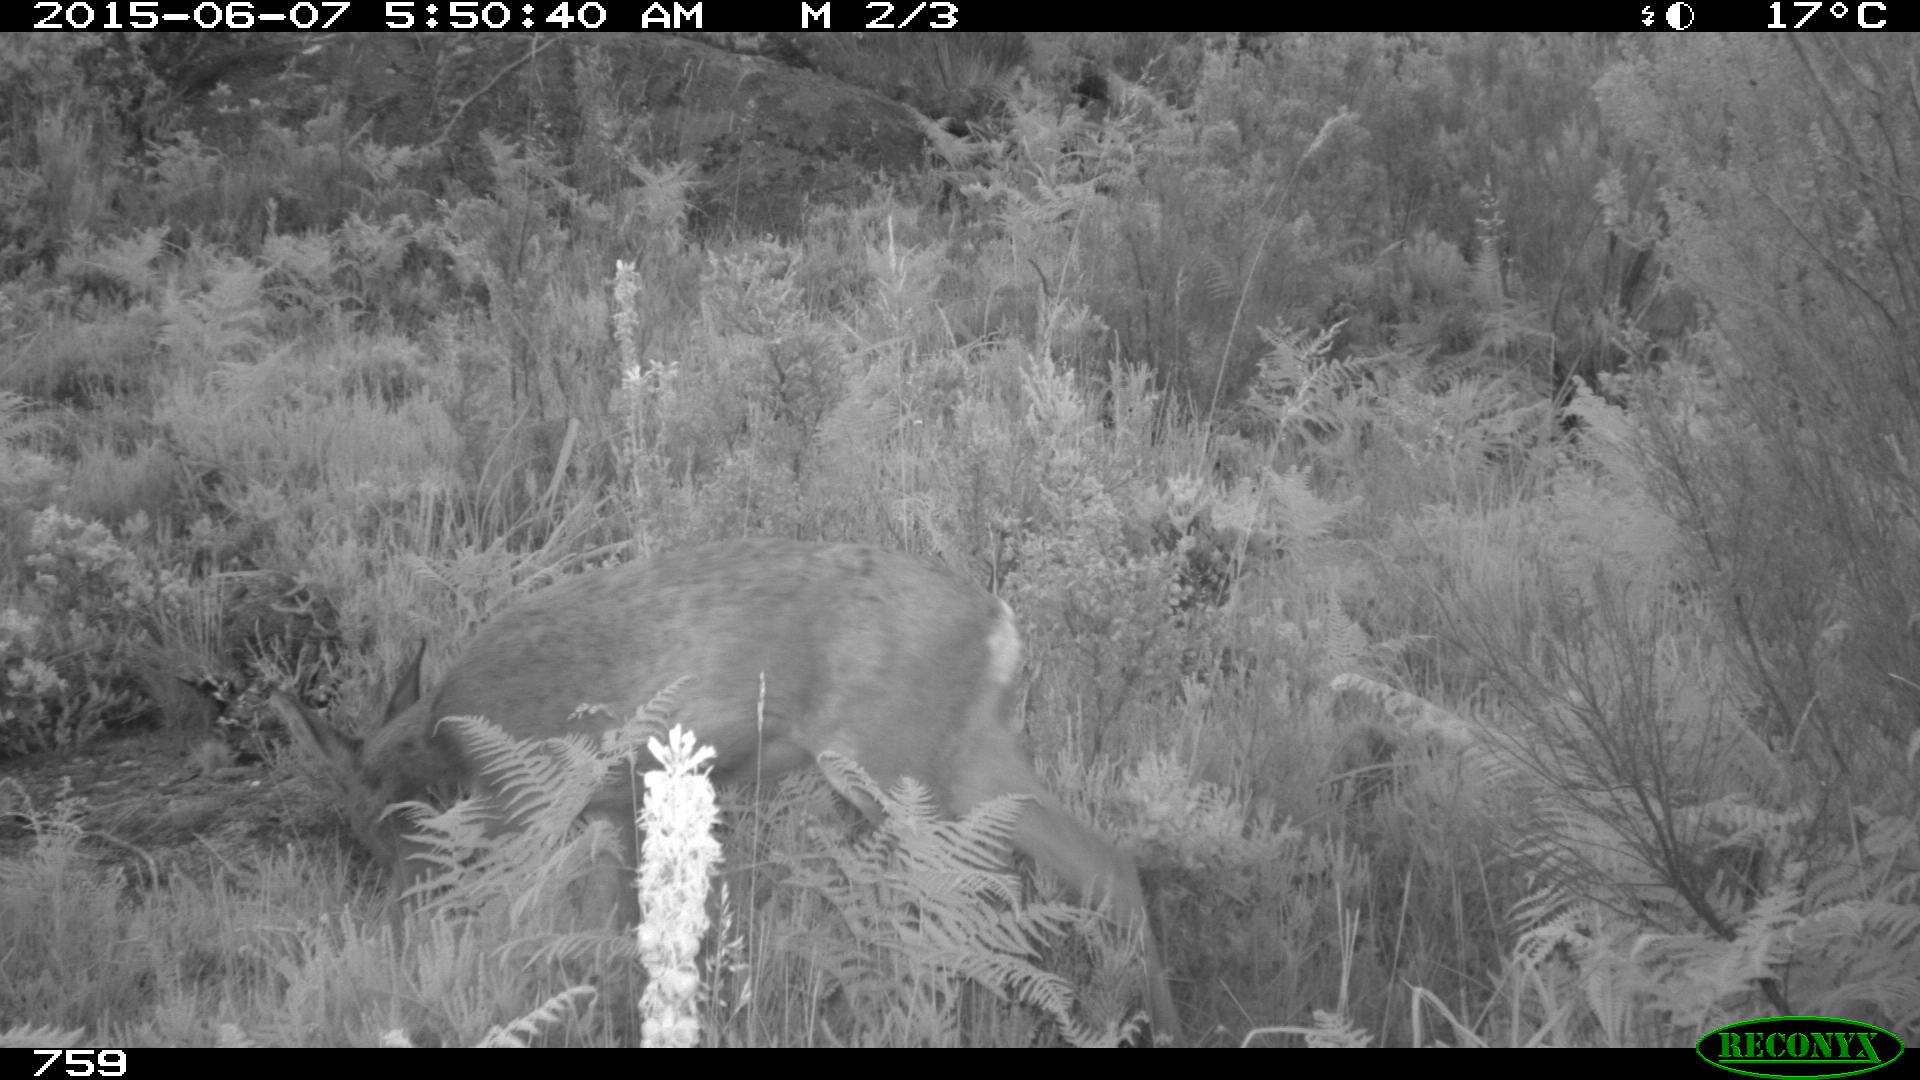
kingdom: Animalia
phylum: Chordata
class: Mammalia
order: Artiodactyla
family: Cervidae
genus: Capreolus
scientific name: Capreolus capreolus
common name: Western roe deer
